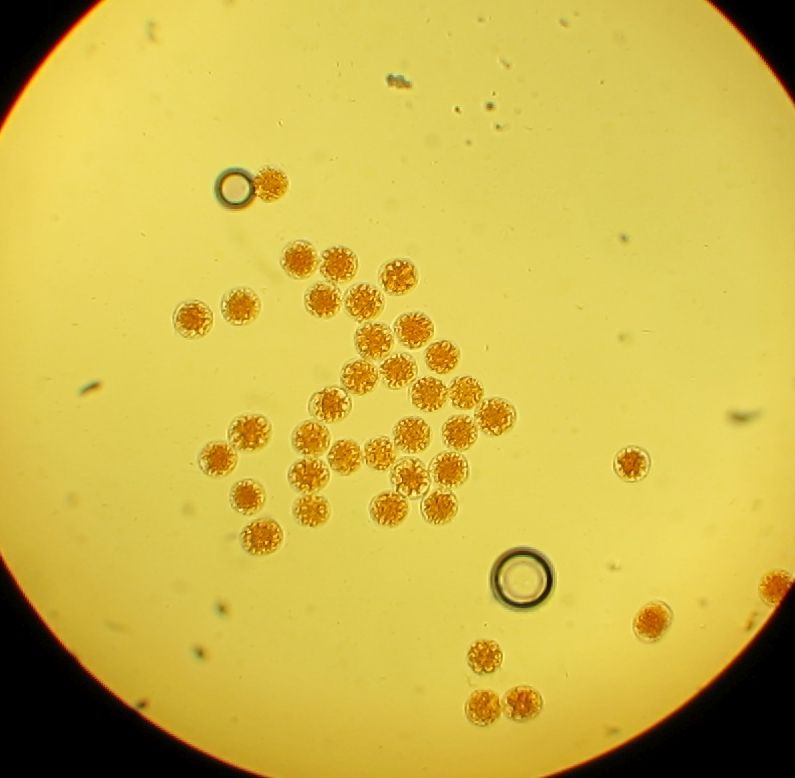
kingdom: Fungi
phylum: Basidiomycota
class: Pucciniomycetes
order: Pucciniales
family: Pucciniaceae
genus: Puccinia
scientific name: Puccinia porri
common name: Allium rust
